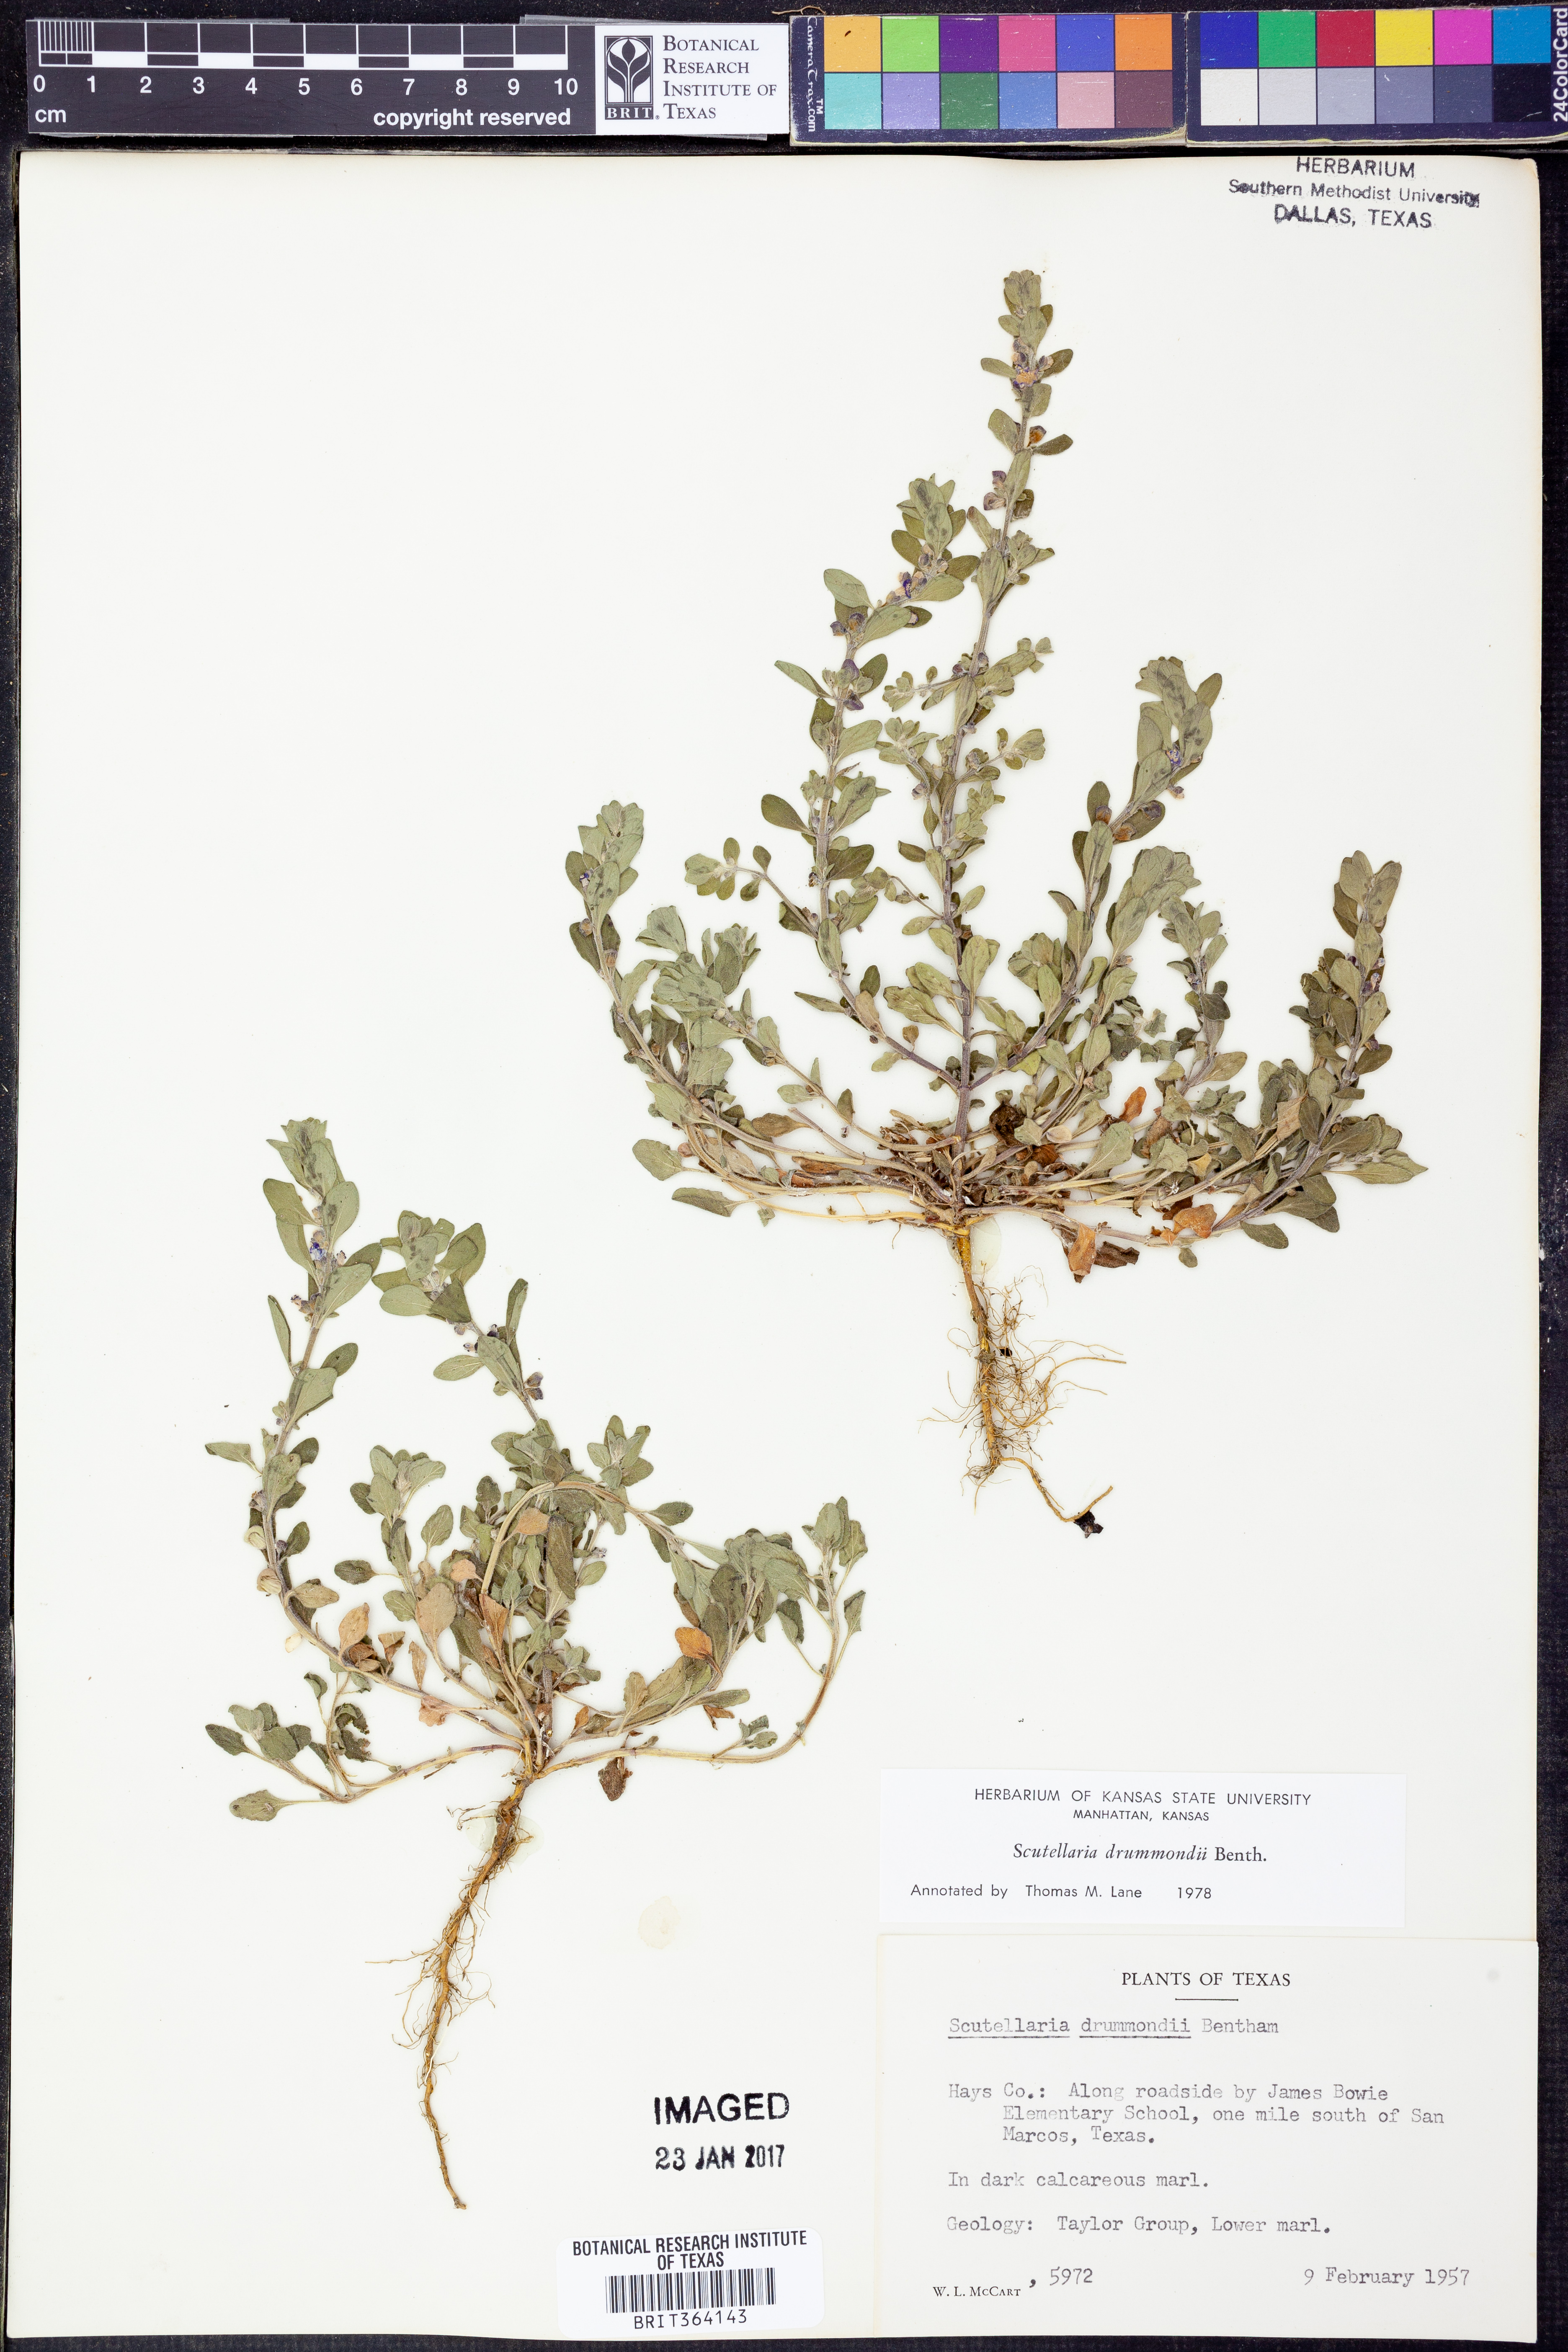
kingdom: Plantae
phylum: Tracheophyta
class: Magnoliopsida
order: Lamiales
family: Lamiaceae
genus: Scutellaria
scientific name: Scutellaria drummondii
